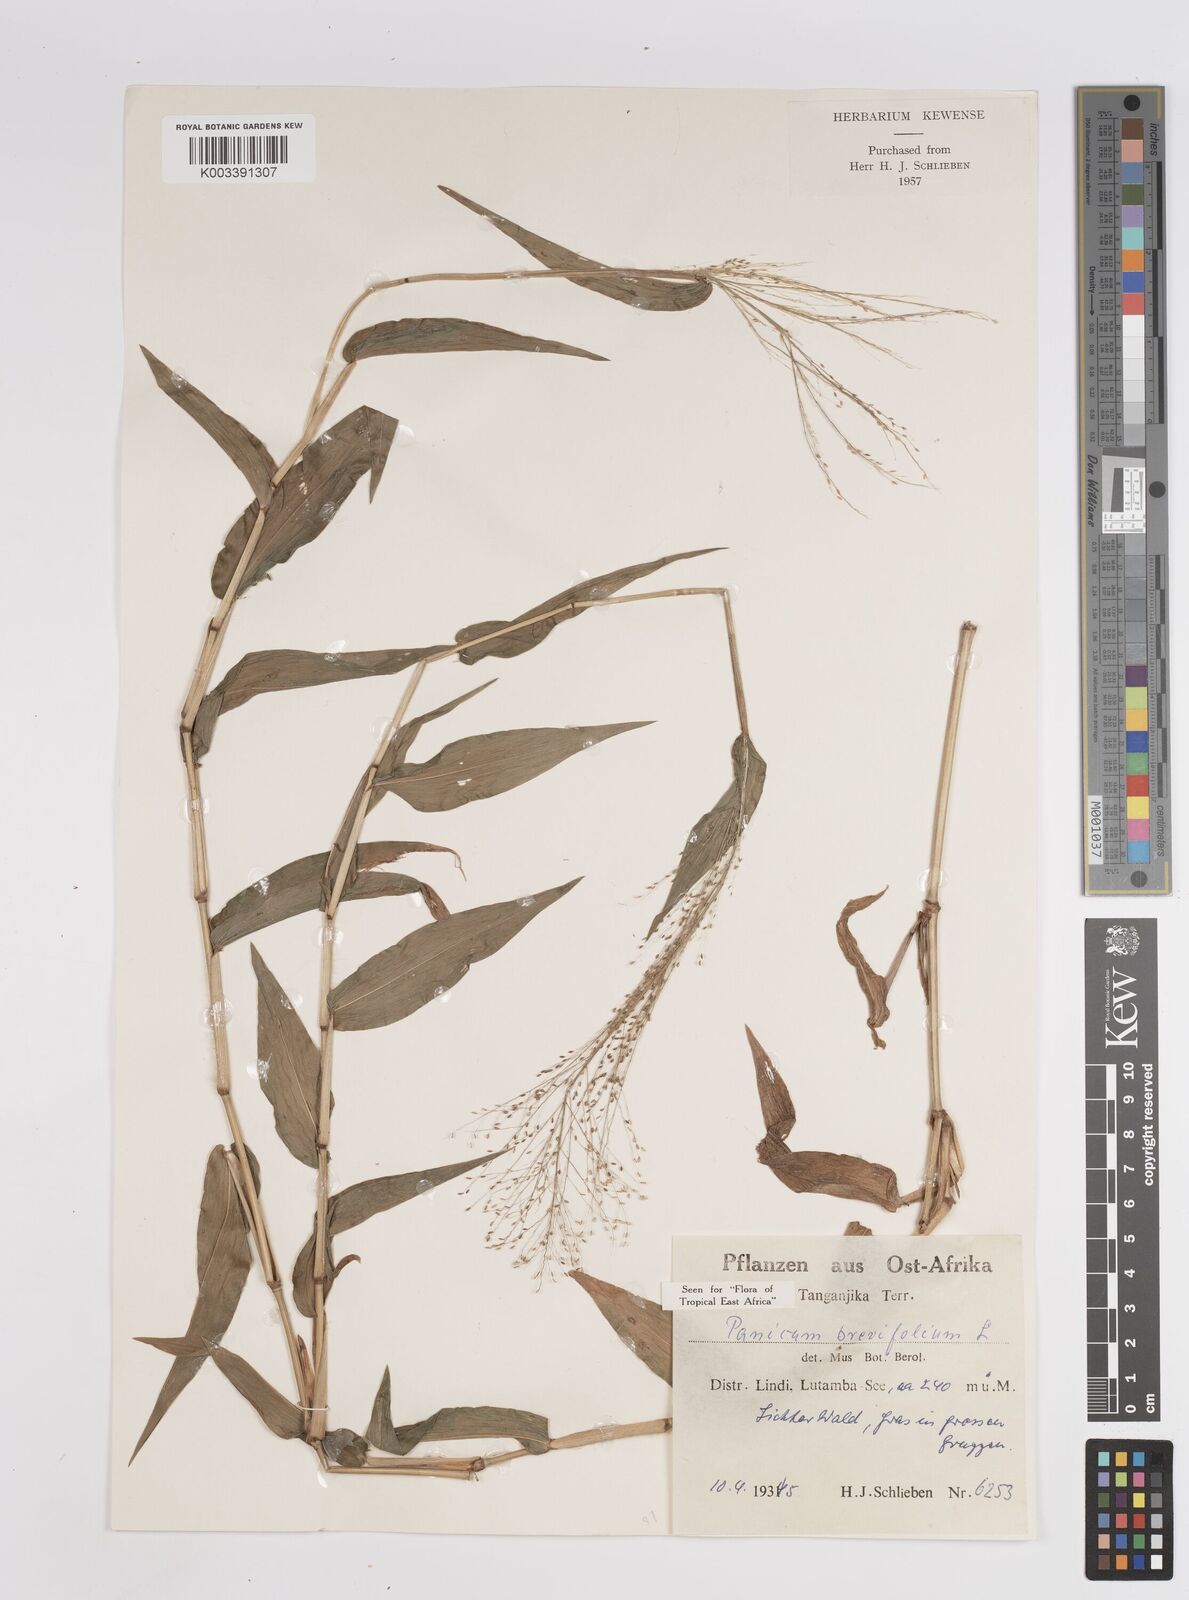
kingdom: Plantae
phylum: Tracheophyta
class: Liliopsida
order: Poales
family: Poaceae
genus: Panicum
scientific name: Panicum brevifolium
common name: Shortleaf panic grass
